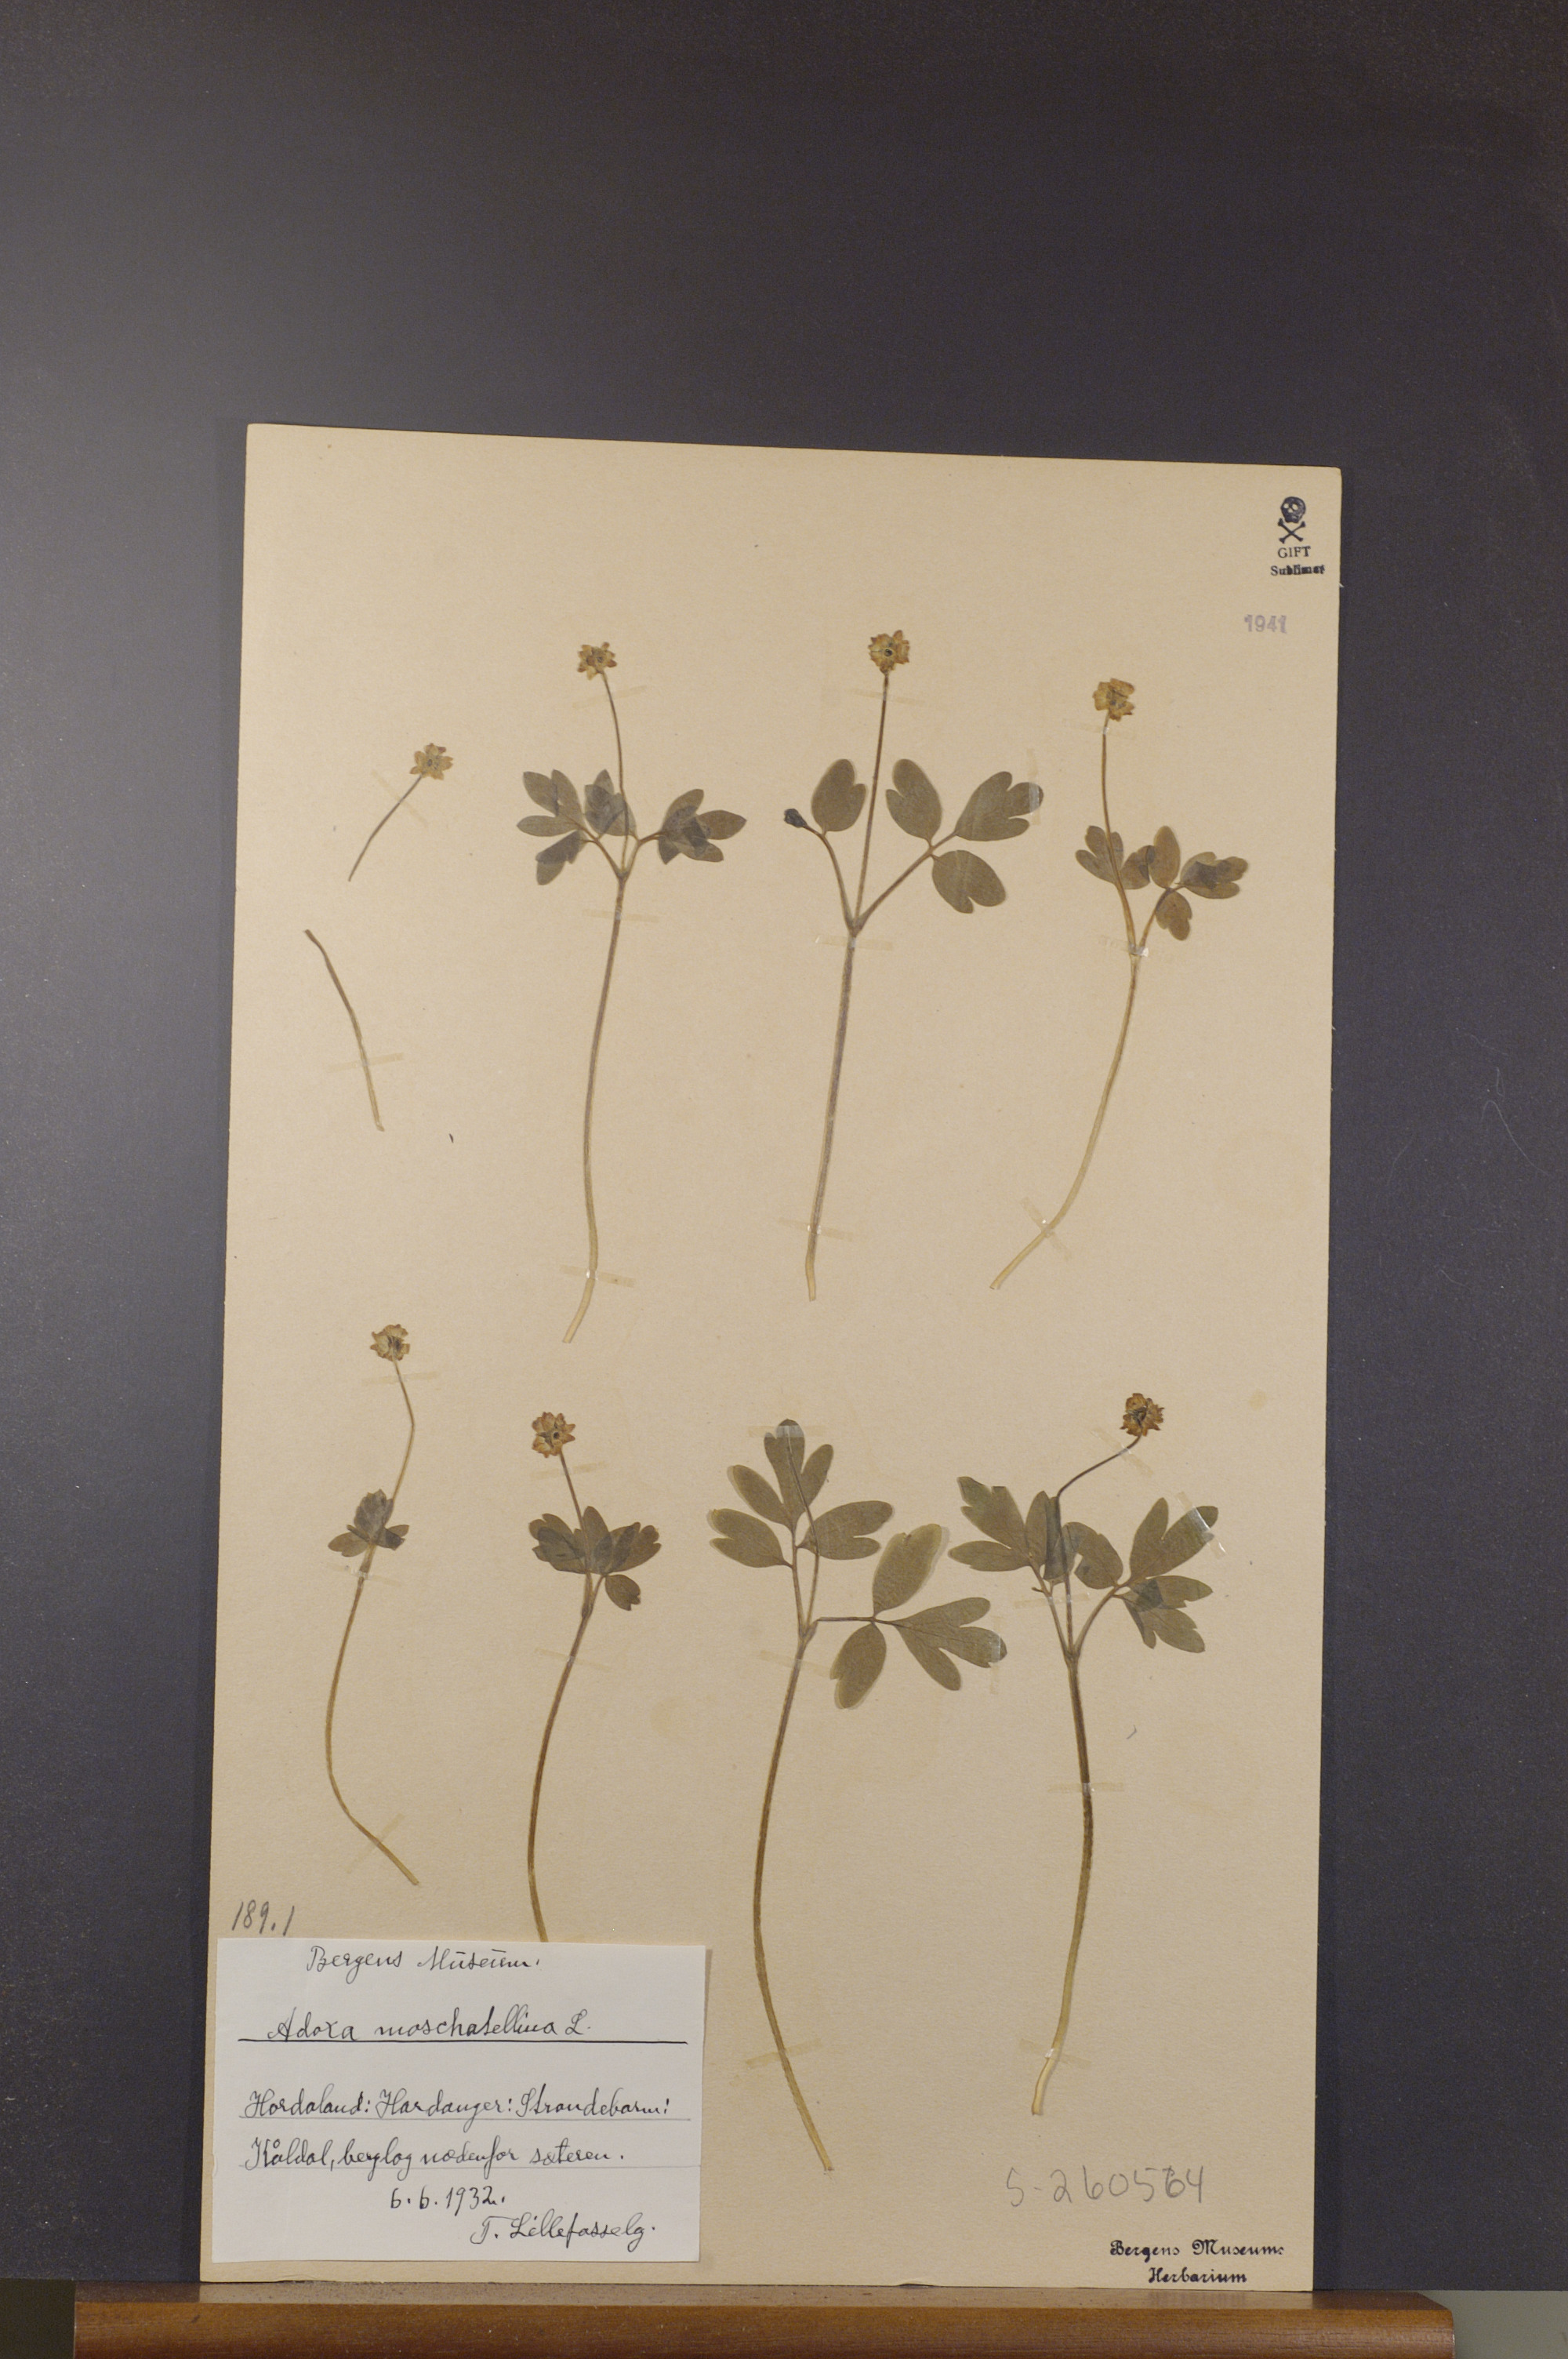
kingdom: Plantae
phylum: Tracheophyta
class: Magnoliopsida
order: Dipsacales
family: Viburnaceae
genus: Adoxa
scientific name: Adoxa moschatellina
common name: Moschatel
